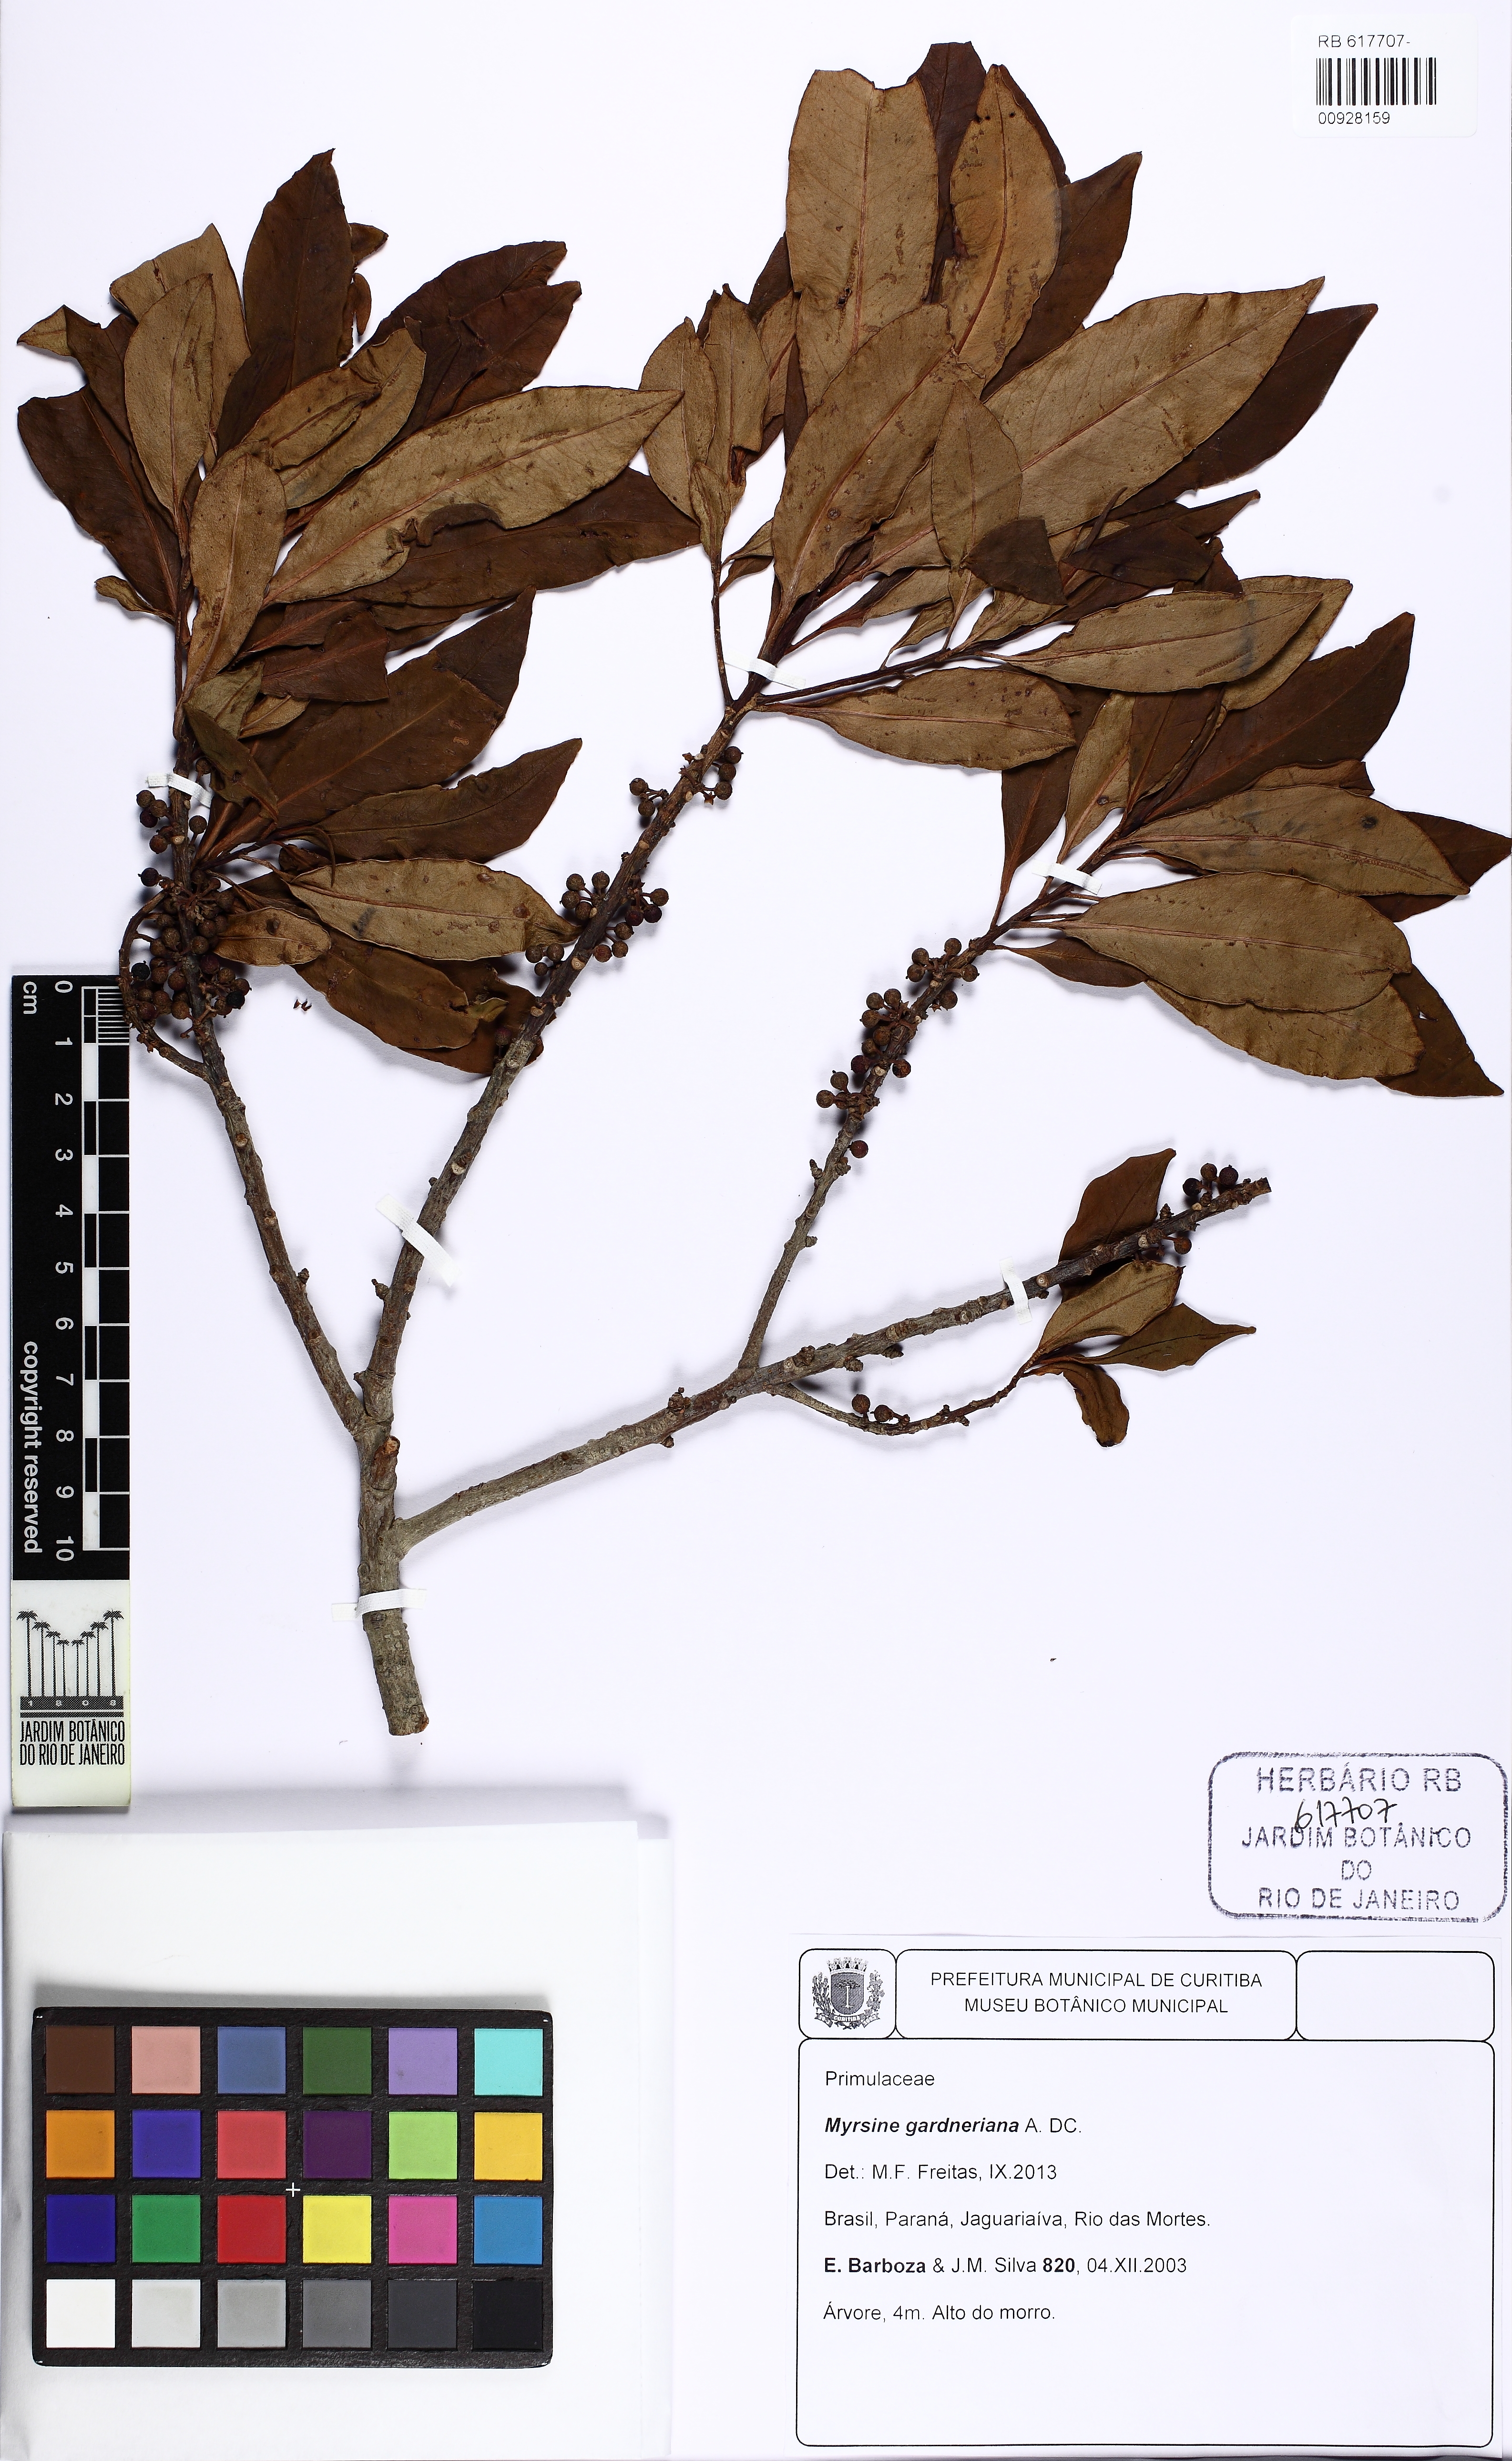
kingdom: Plantae
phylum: Tracheophyta
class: Magnoliopsida
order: Ericales
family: Primulaceae
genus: Myrsine
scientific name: Myrsine gardneriana
